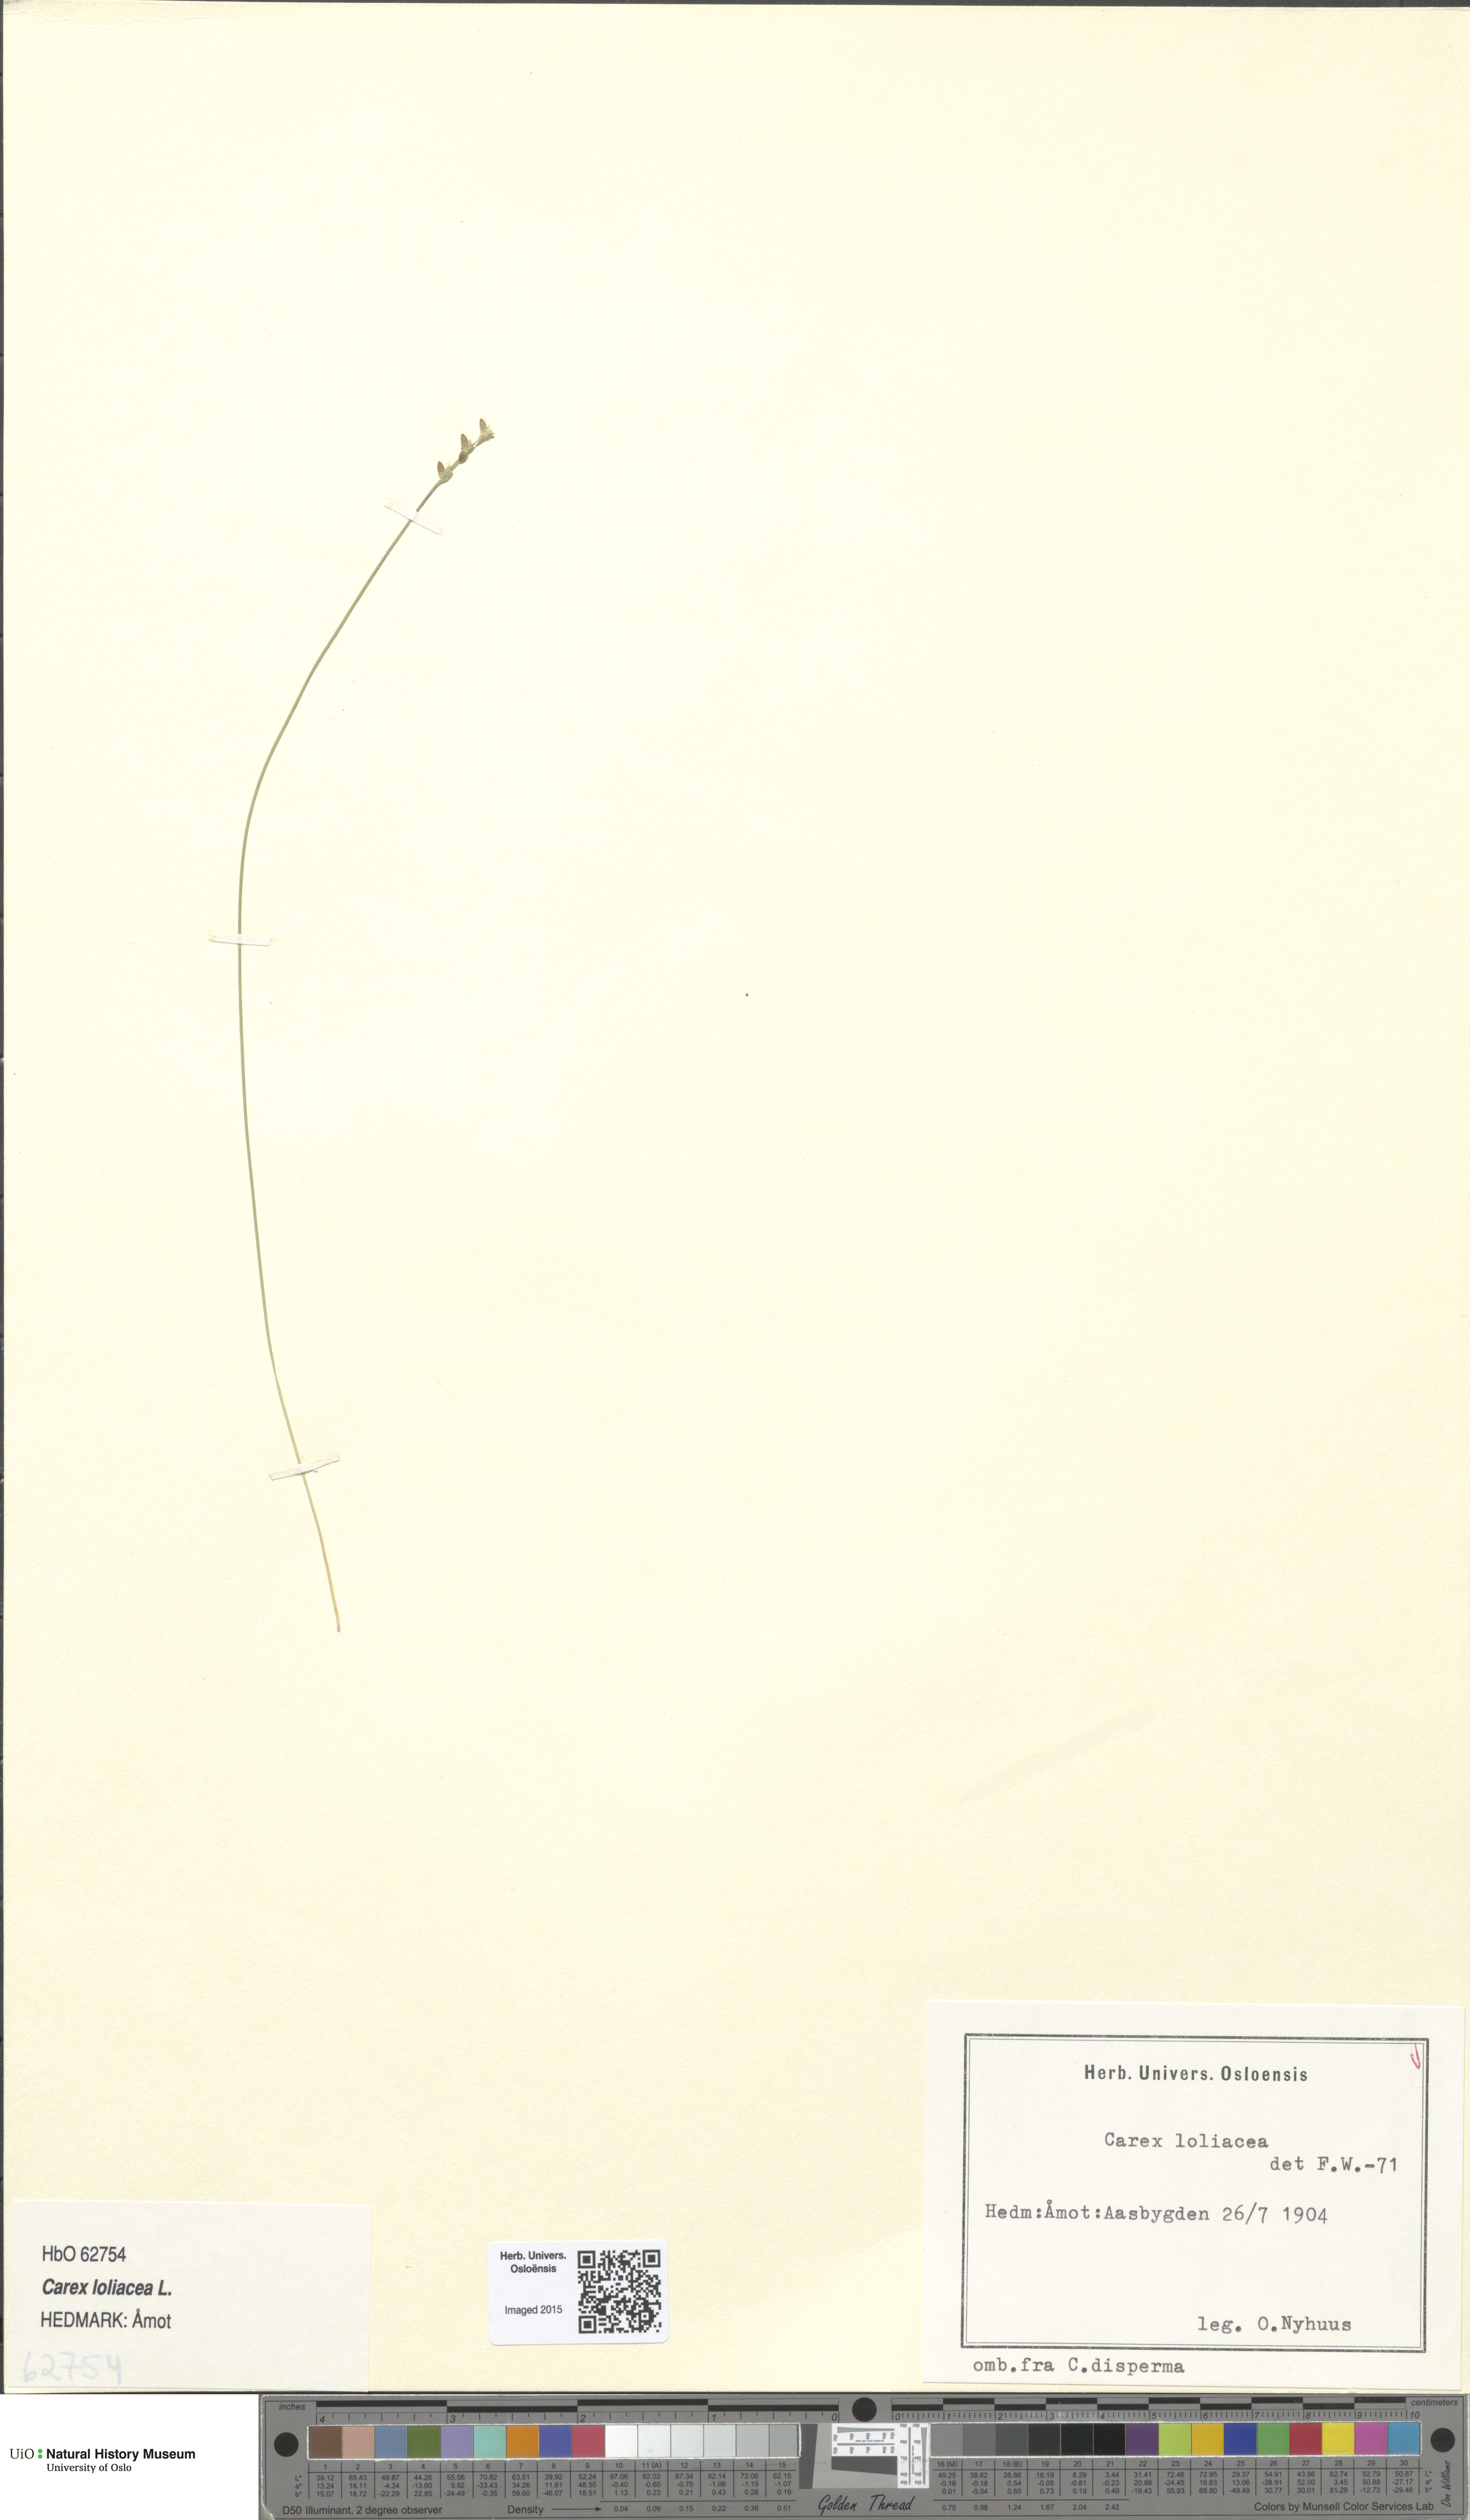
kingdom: Plantae
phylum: Tracheophyta
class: Liliopsida
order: Poales
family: Cyperaceae
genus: Carex
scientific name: Carex loliacea
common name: Ryegrass sedge
